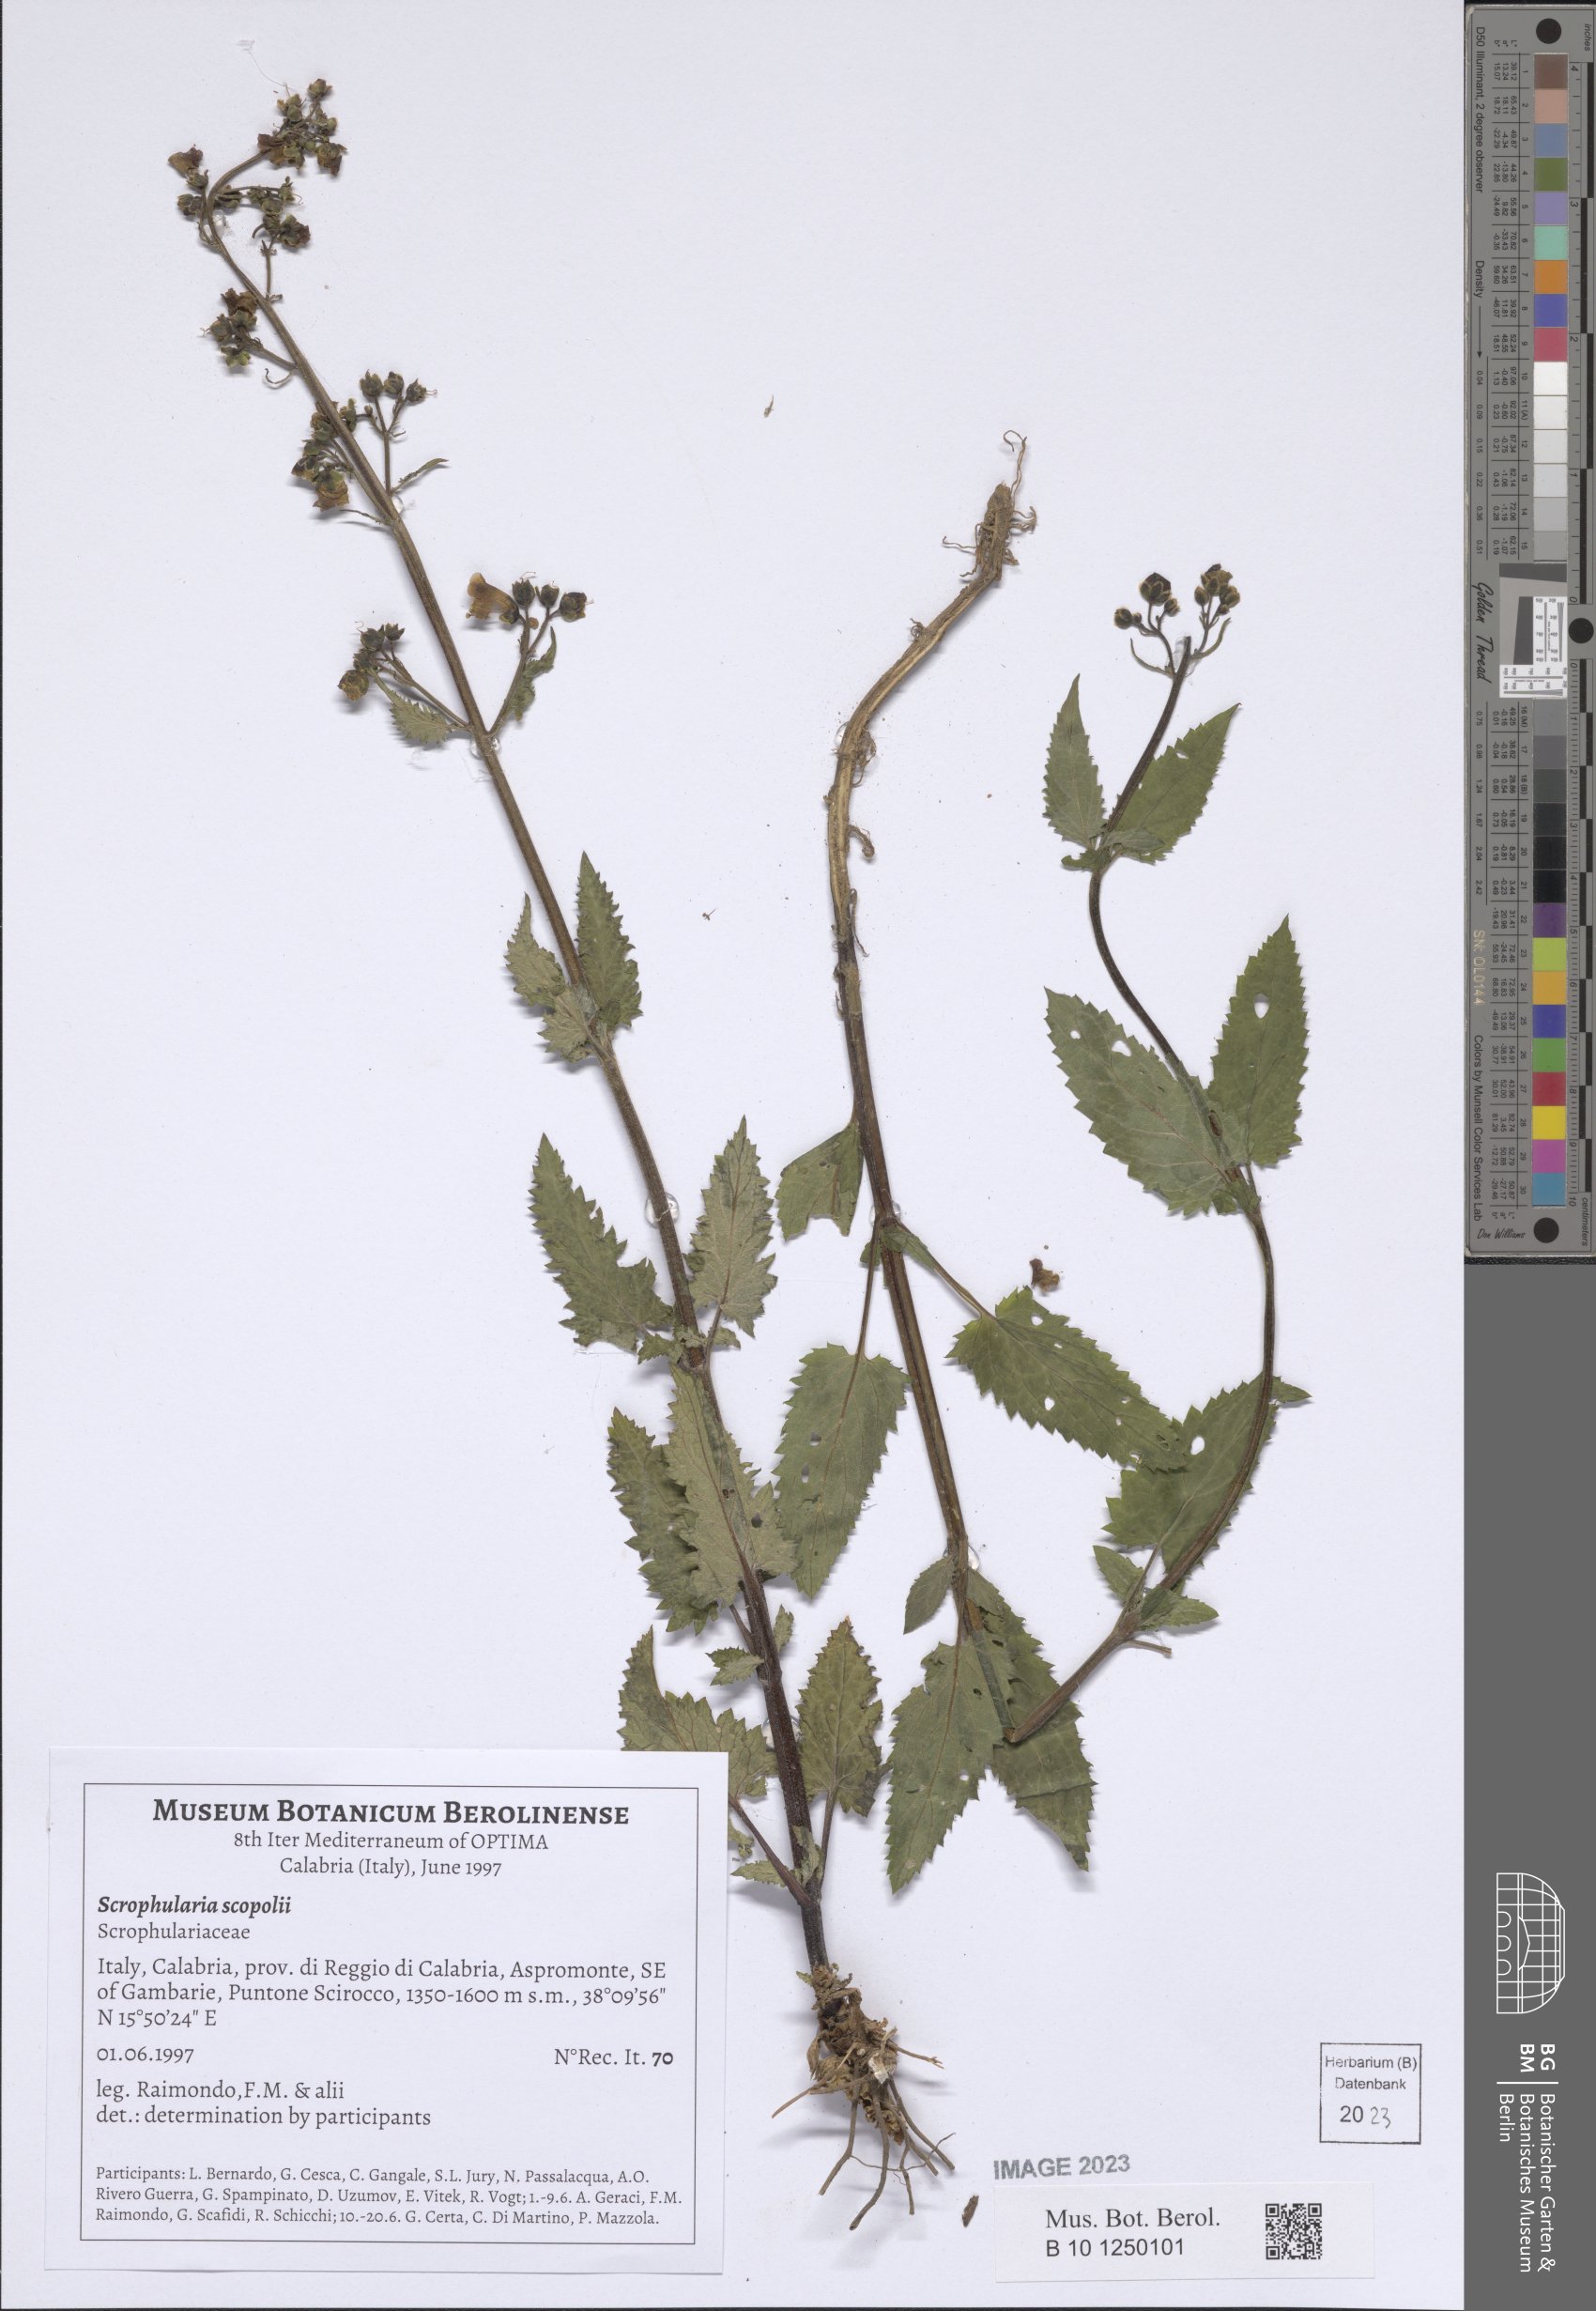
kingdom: Plantae
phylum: Tracheophyta
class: Magnoliopsida
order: Lamiales
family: Scrophulariaceae
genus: Scrophularia
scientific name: Scrophularia scopolii
